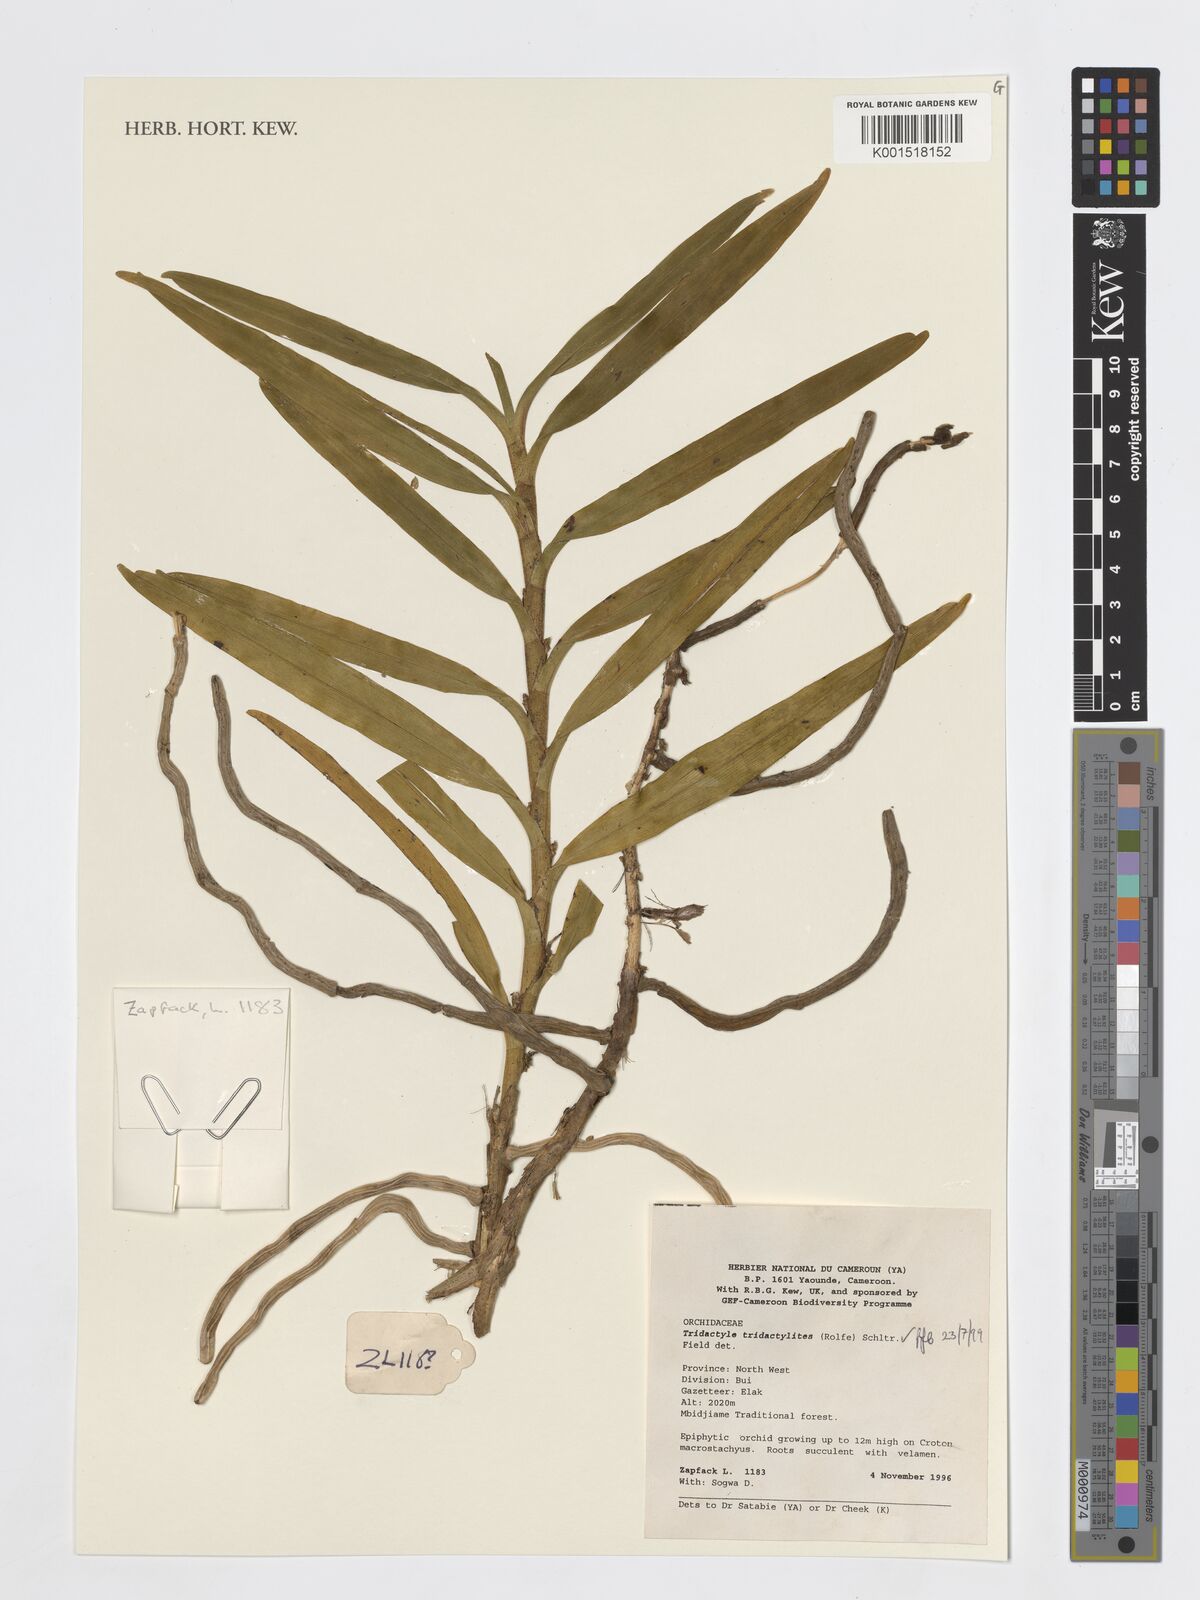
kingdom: Plantae
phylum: Tracheophyta
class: Liliopsida
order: Asparagales
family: Orchidaceae
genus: Tridactyle
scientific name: Tridactyle tridactylites
